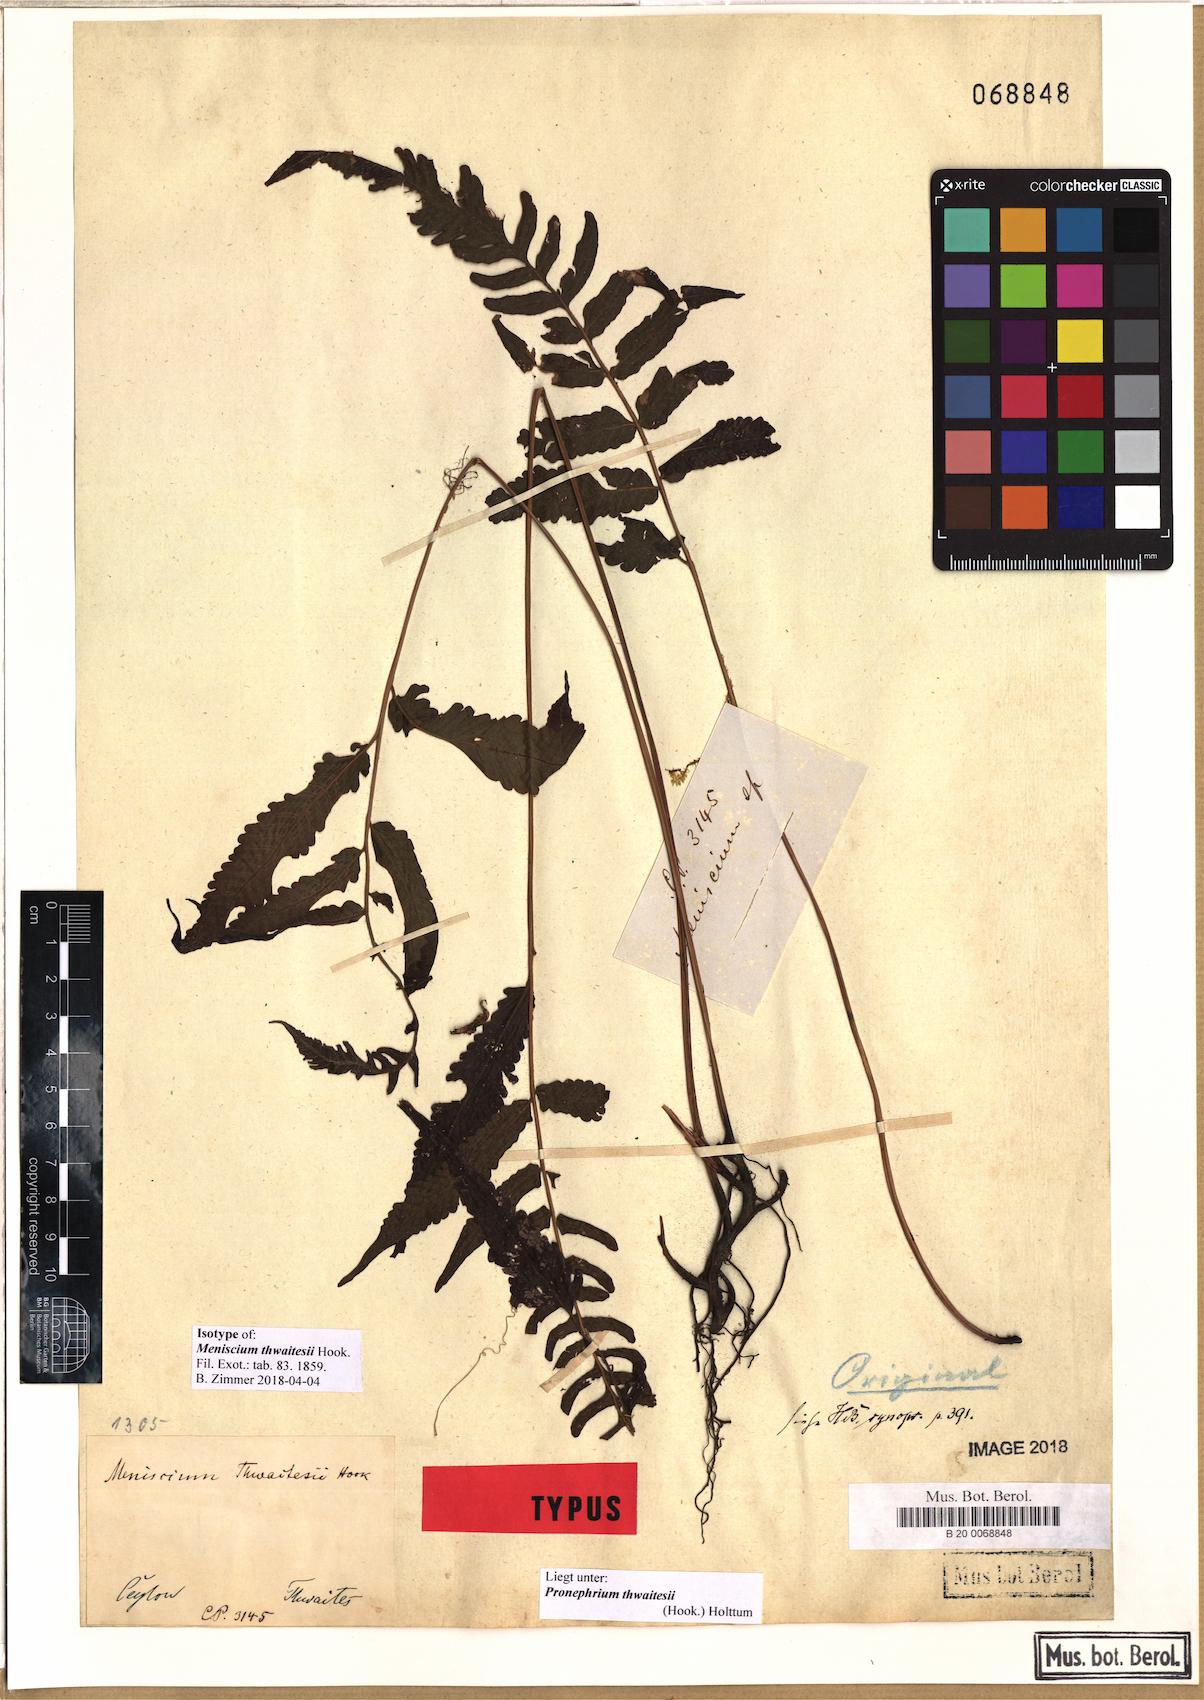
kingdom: Plantae
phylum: Tracheophyta
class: Polypodiopsida
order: Polypodiales
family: Thelypteridaceae
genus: Chrinephrium
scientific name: Chrinephrium thwaitesii
